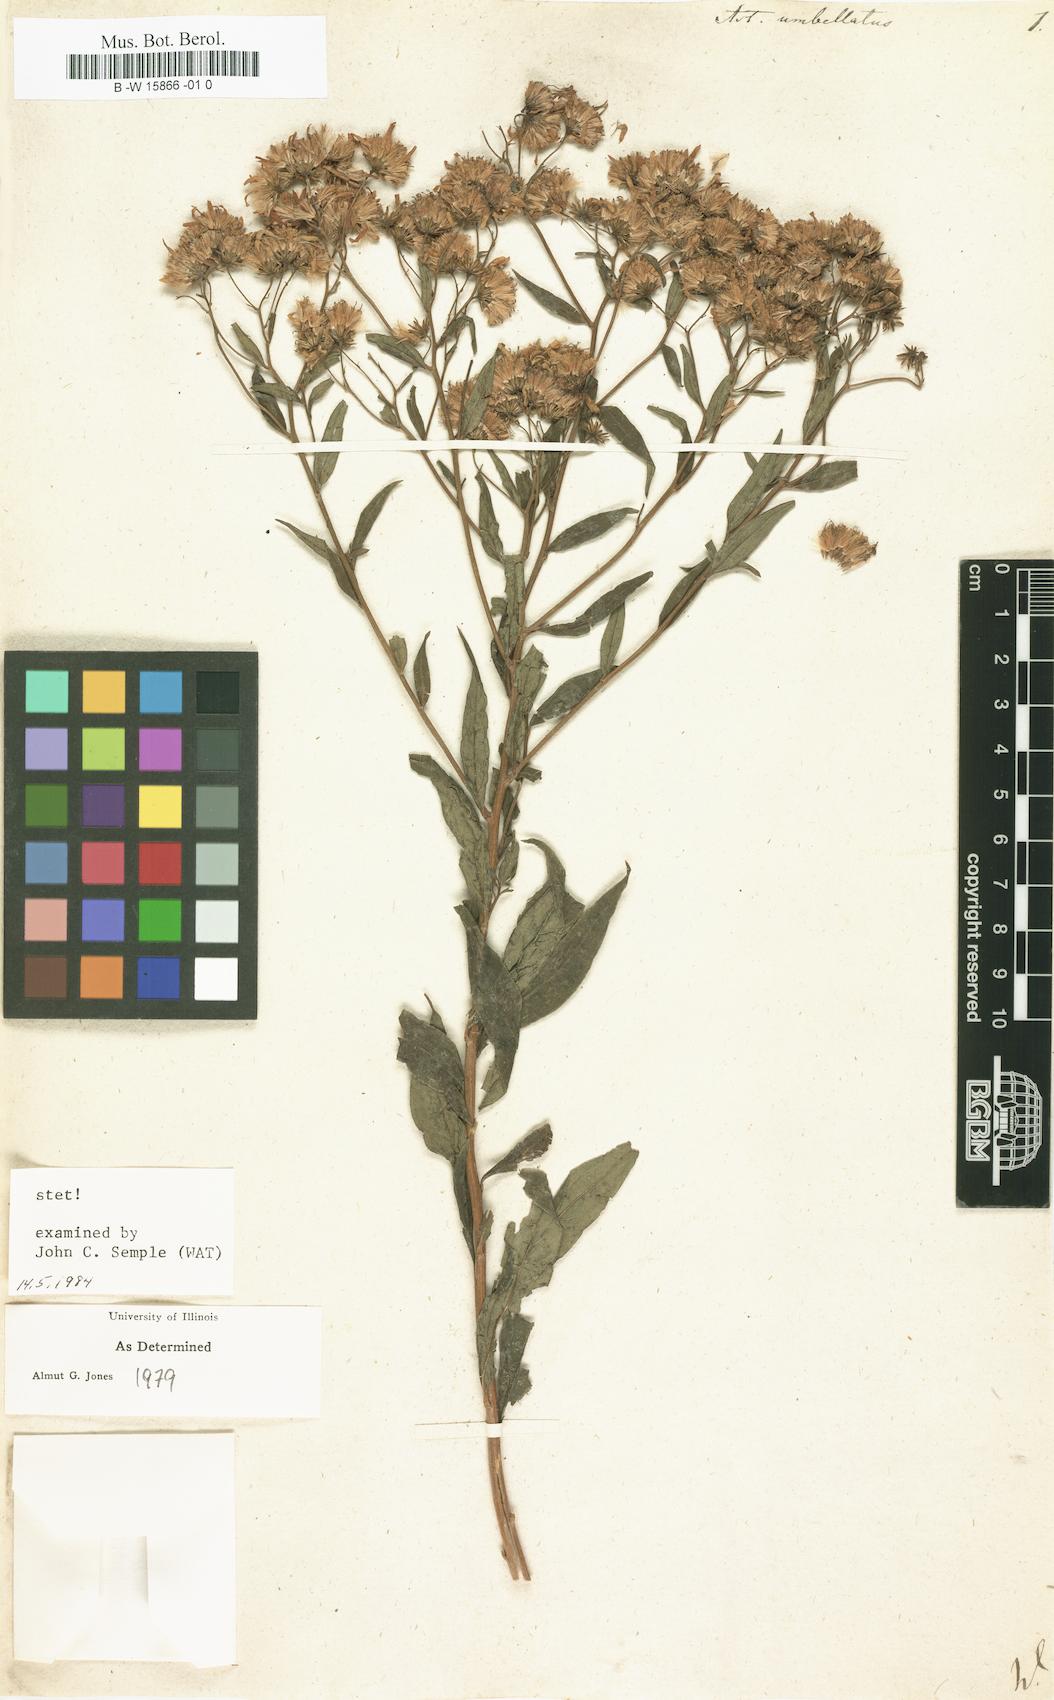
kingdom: Plantae
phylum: Tracheophyta
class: Magnoliopsida
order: Asterales
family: Asteraceae
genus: Doellingeria
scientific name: Doellingeria umbellata
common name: Flat-top white aster
